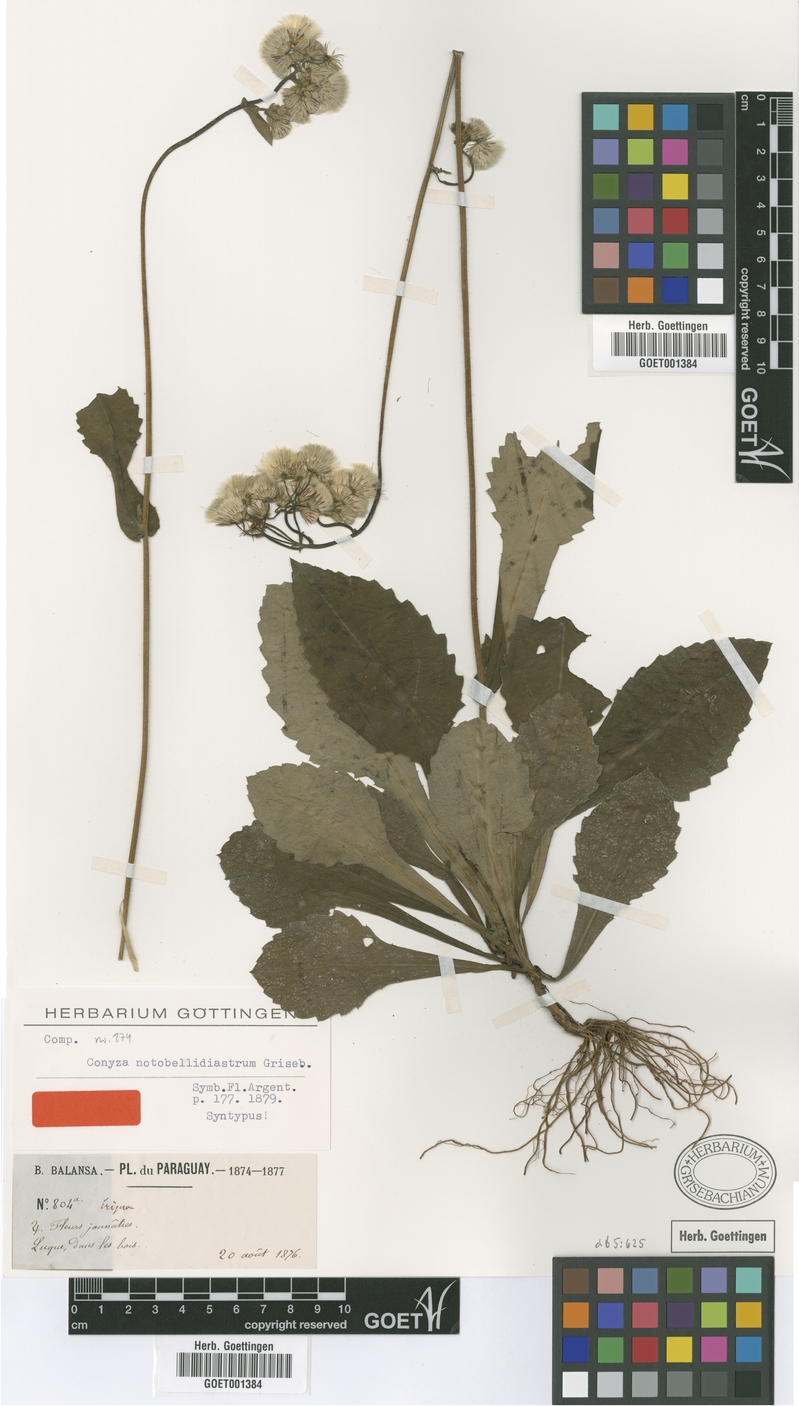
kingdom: Plantae
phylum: Tracheophyta
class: Magnoliopsida
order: Asterales
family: Asteraceae
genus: Exostigma
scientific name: Exostigma notobellidiastrum
